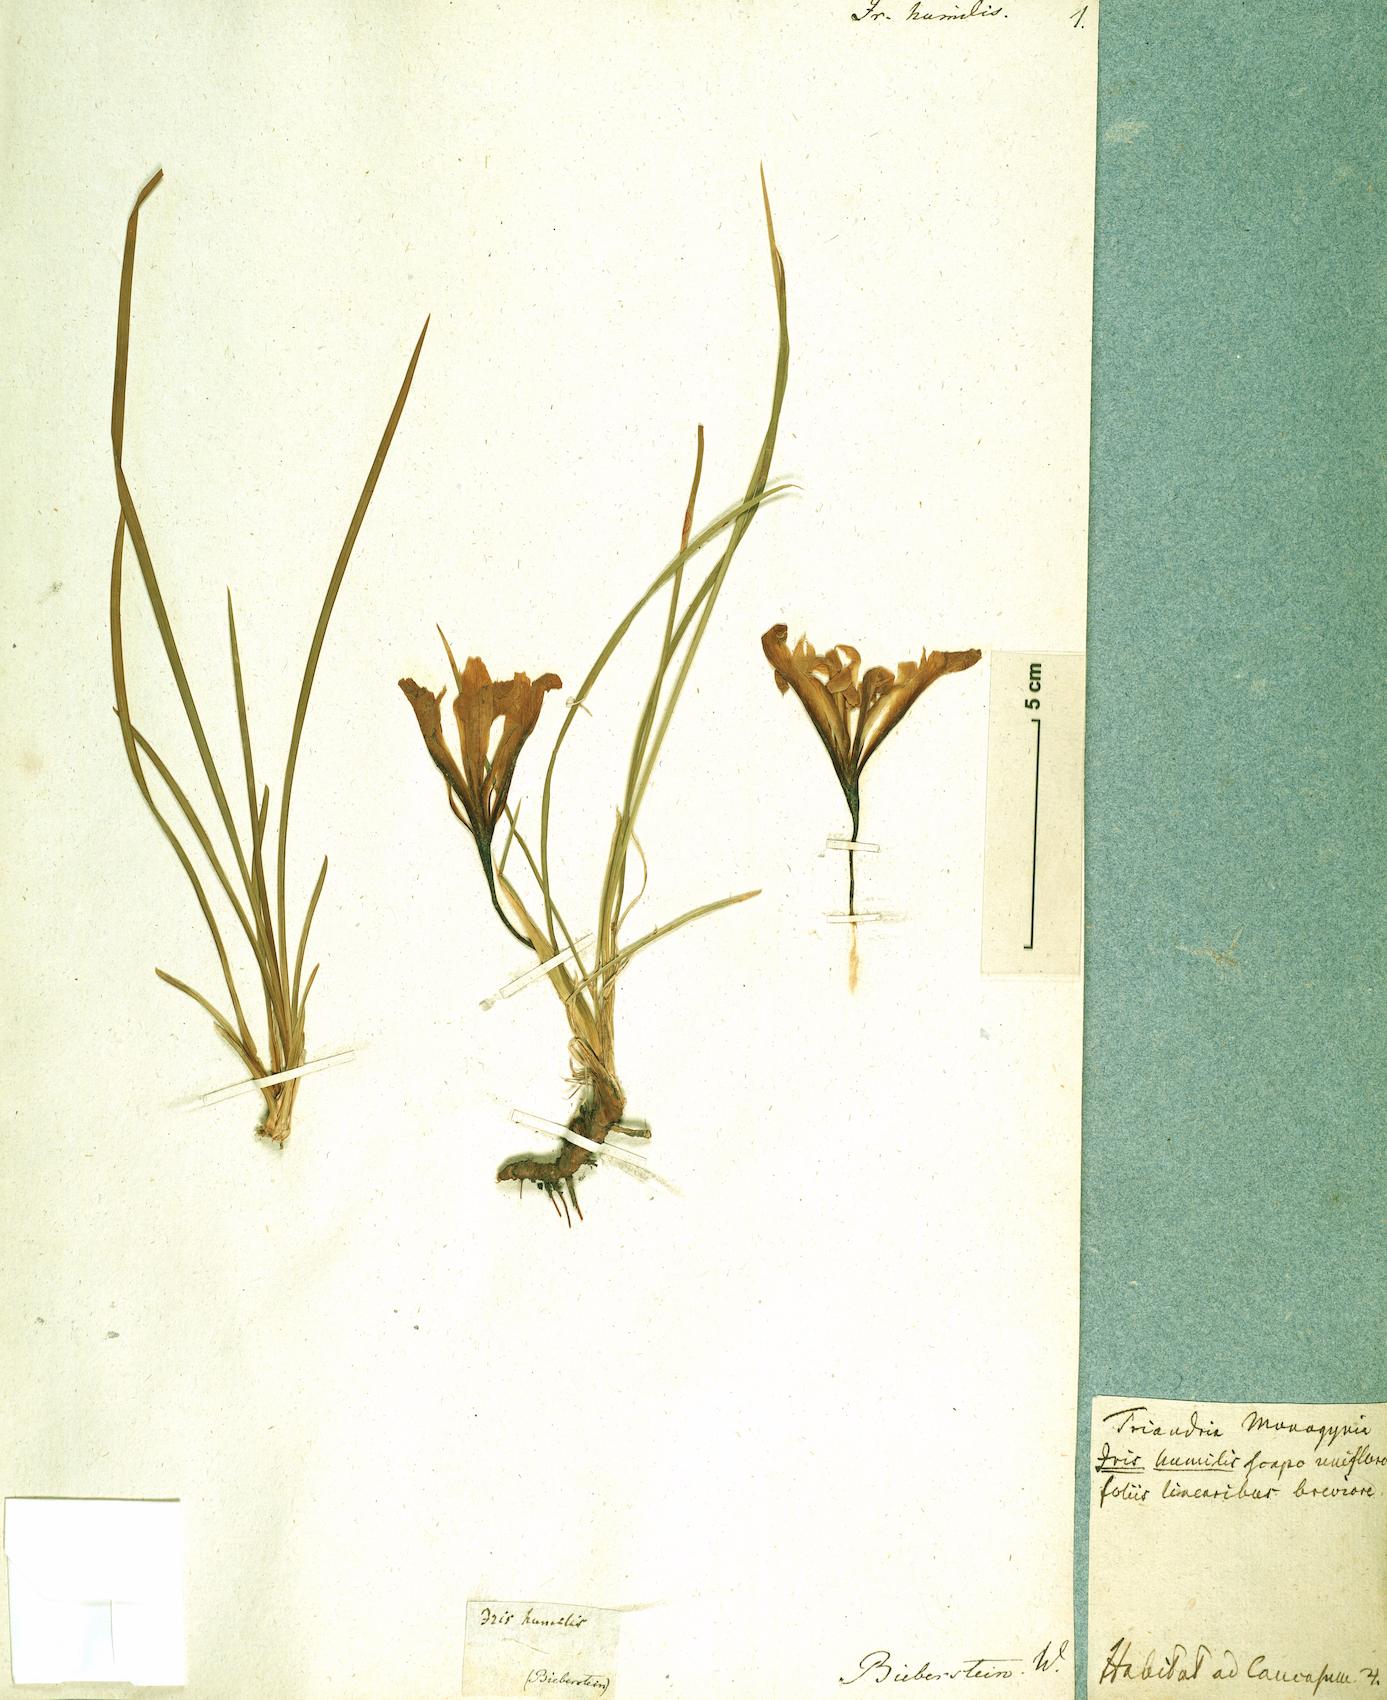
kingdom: Plantae
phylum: Tracheophyta
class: Liliopsida
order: Asparagales
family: Iridaceae
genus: Iris
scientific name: Iris pontica
